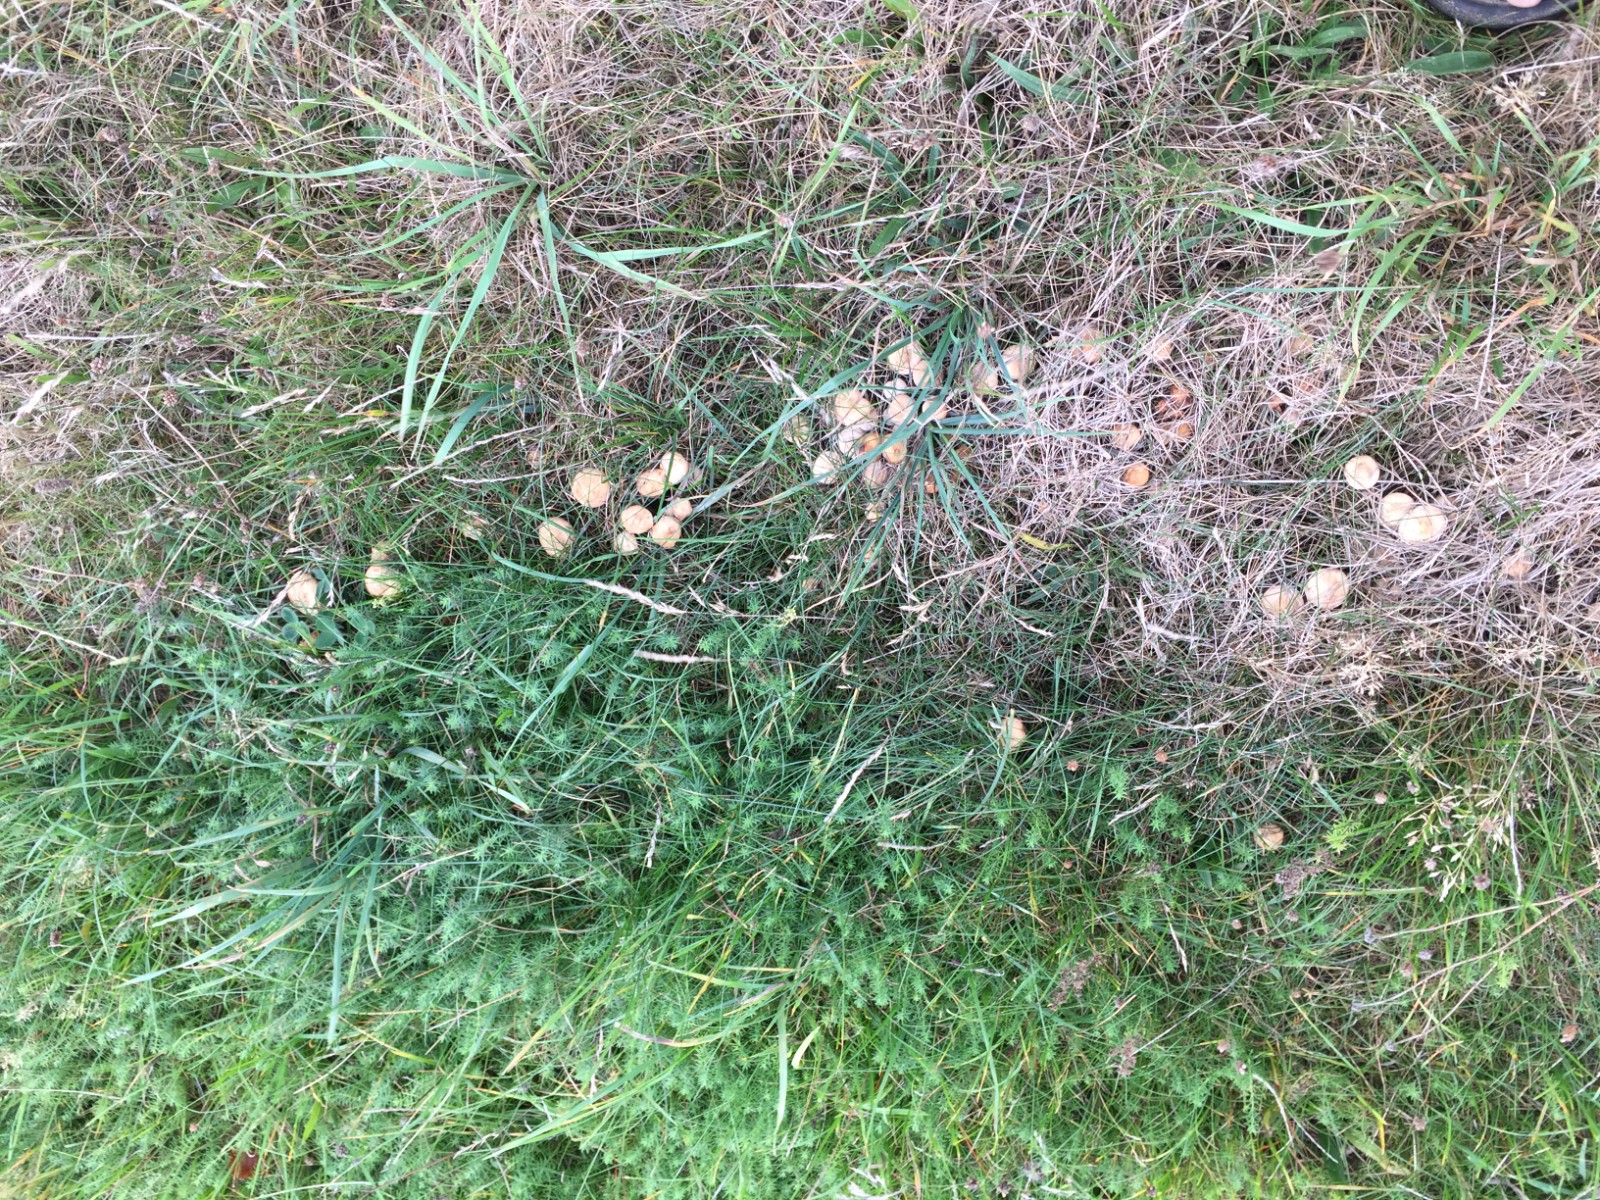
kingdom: Fungi
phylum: Basidiomycota
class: Agaricomycetes
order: Agaricales
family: Marasmiaceae
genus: Marasmius
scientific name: Marasmius oreades
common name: elledans-bruskhat
